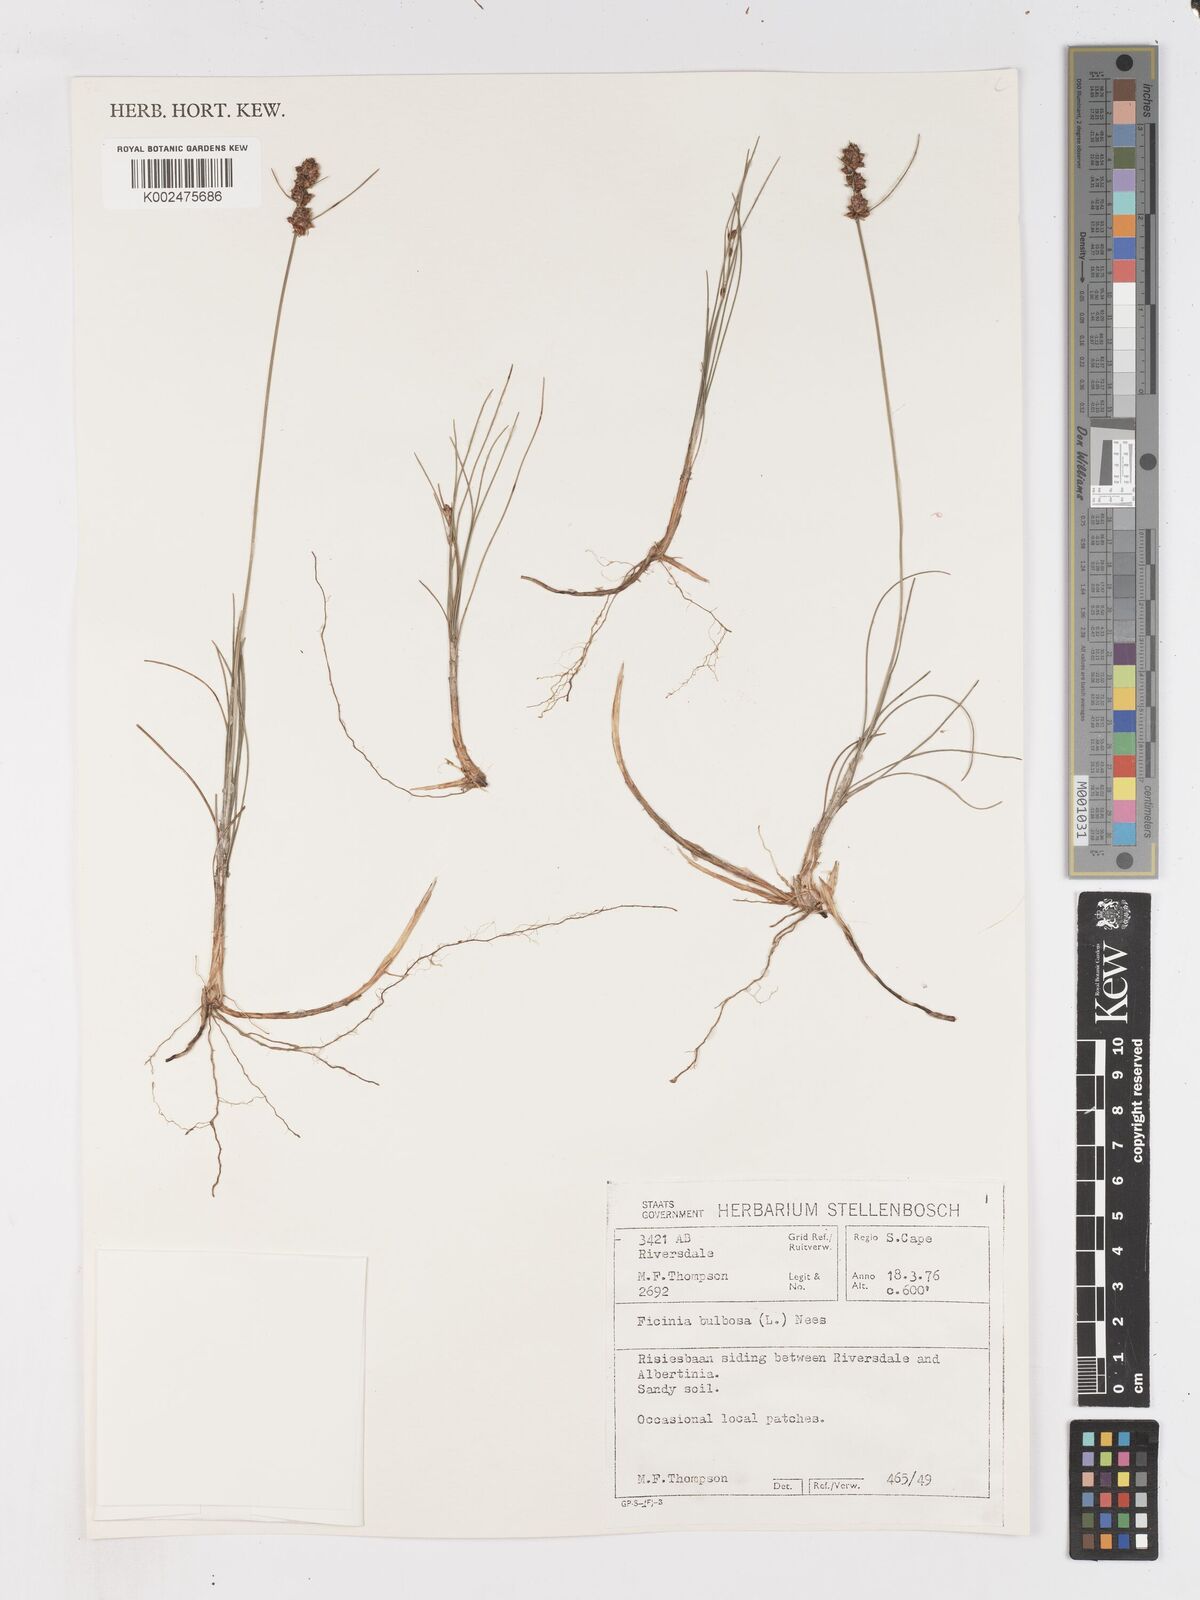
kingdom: Plantae
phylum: Tracheophyta
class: Liliopsida
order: Poales
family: Cyperaceae
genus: Ficinia
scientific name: Ficinia bulbosa
